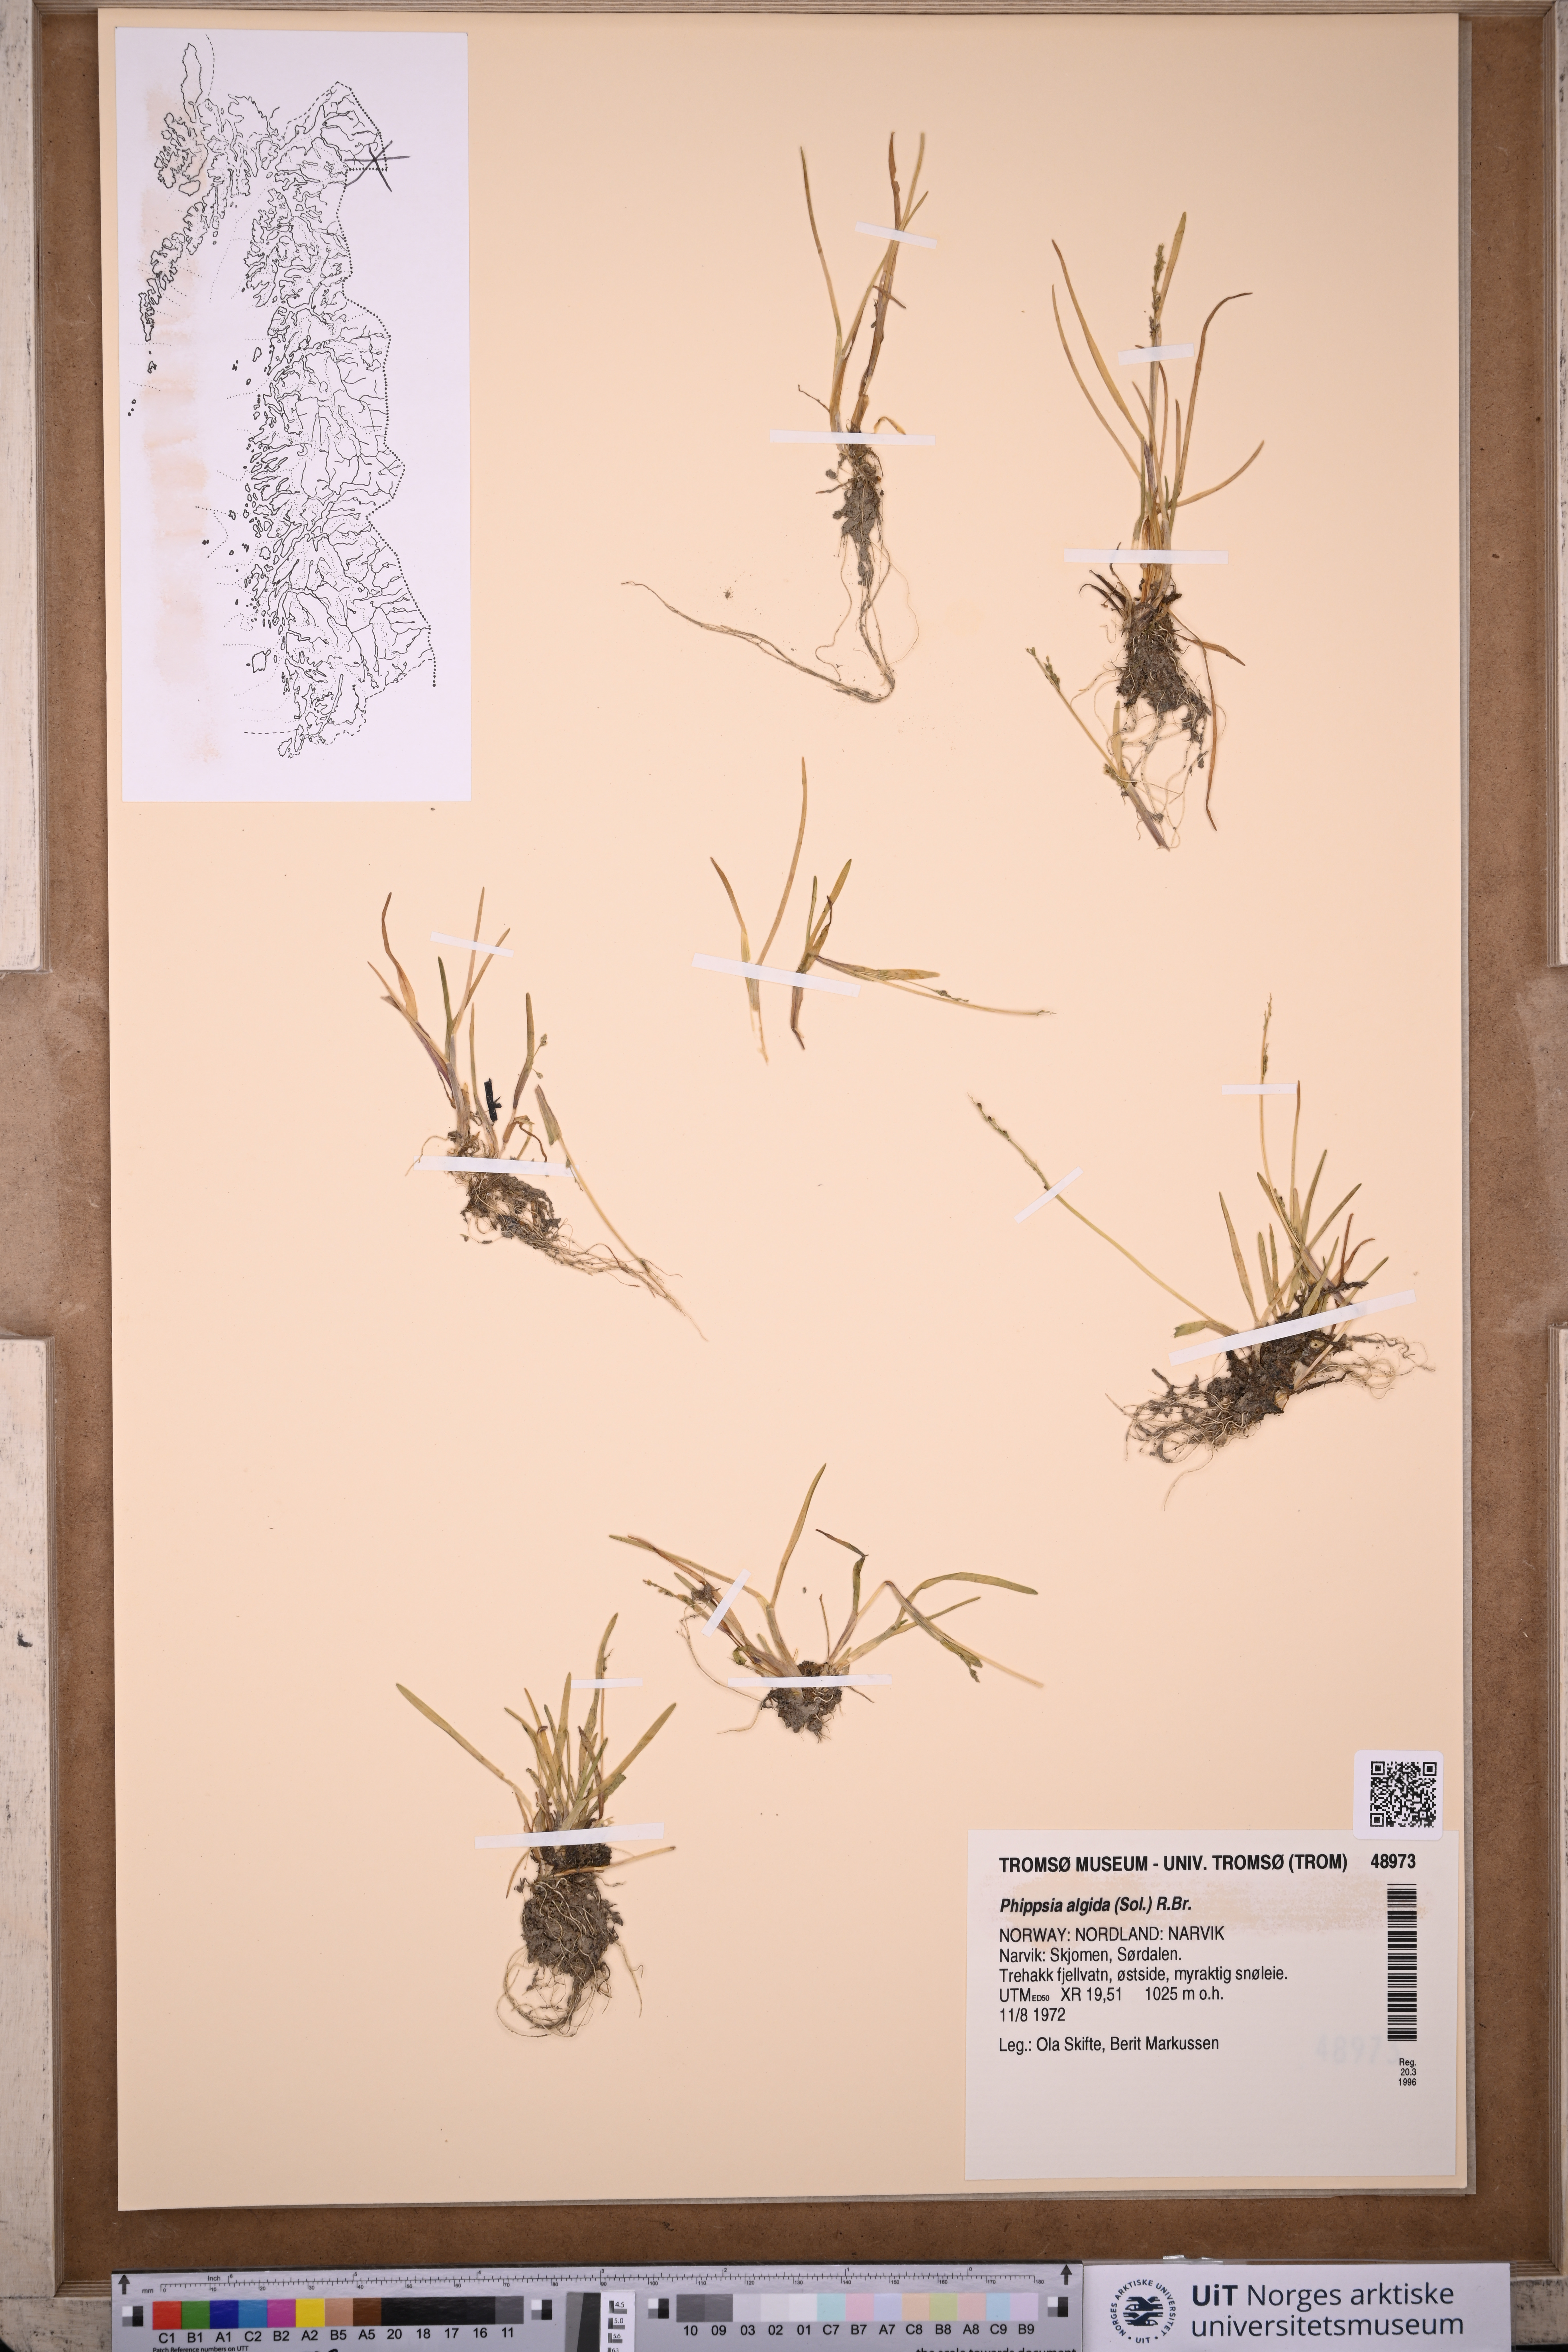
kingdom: Plantae
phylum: Tracheophyta
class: Liliopsida
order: Poales
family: Poaceae
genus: Phippsia
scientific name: Phippsia algida
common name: Ice grass
